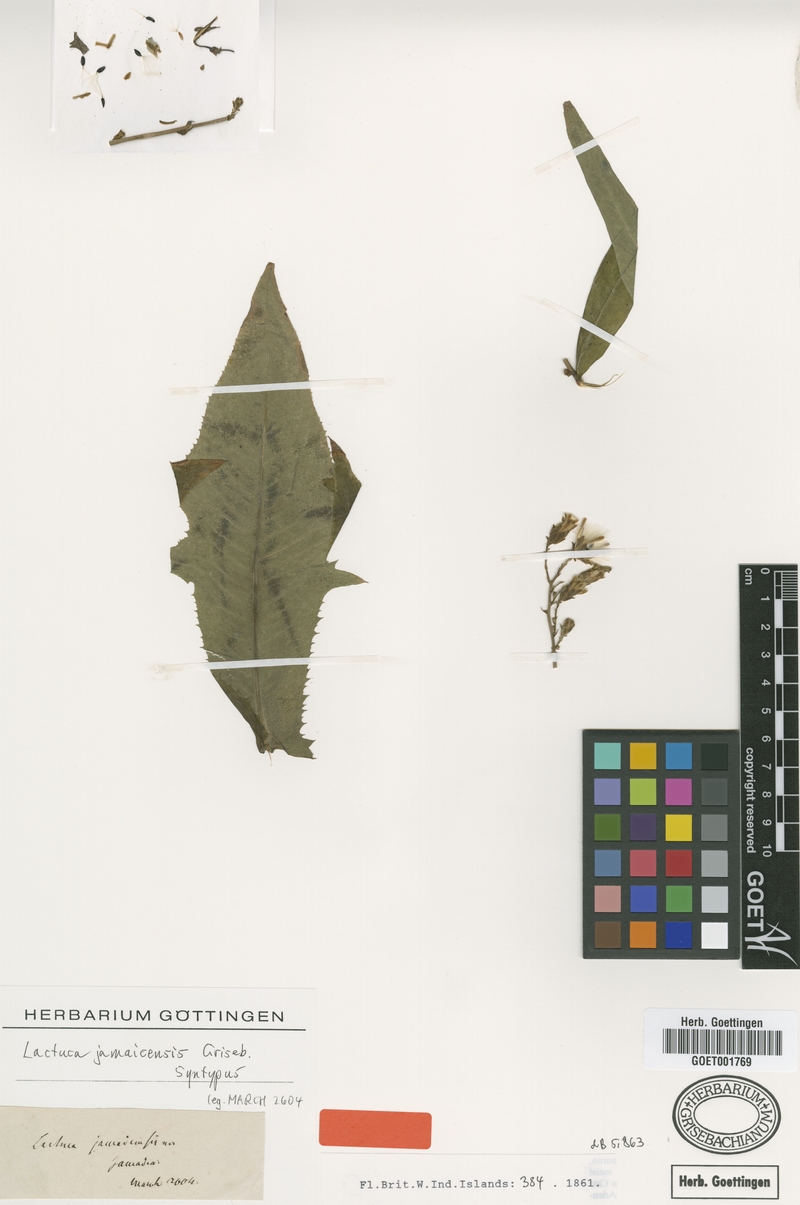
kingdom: Plantae
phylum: Tracheophyta
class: Magnoliopsida
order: Asterales
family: Asteraceae
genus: Lactuca
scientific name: Lactuca indica
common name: Wild lettuce
